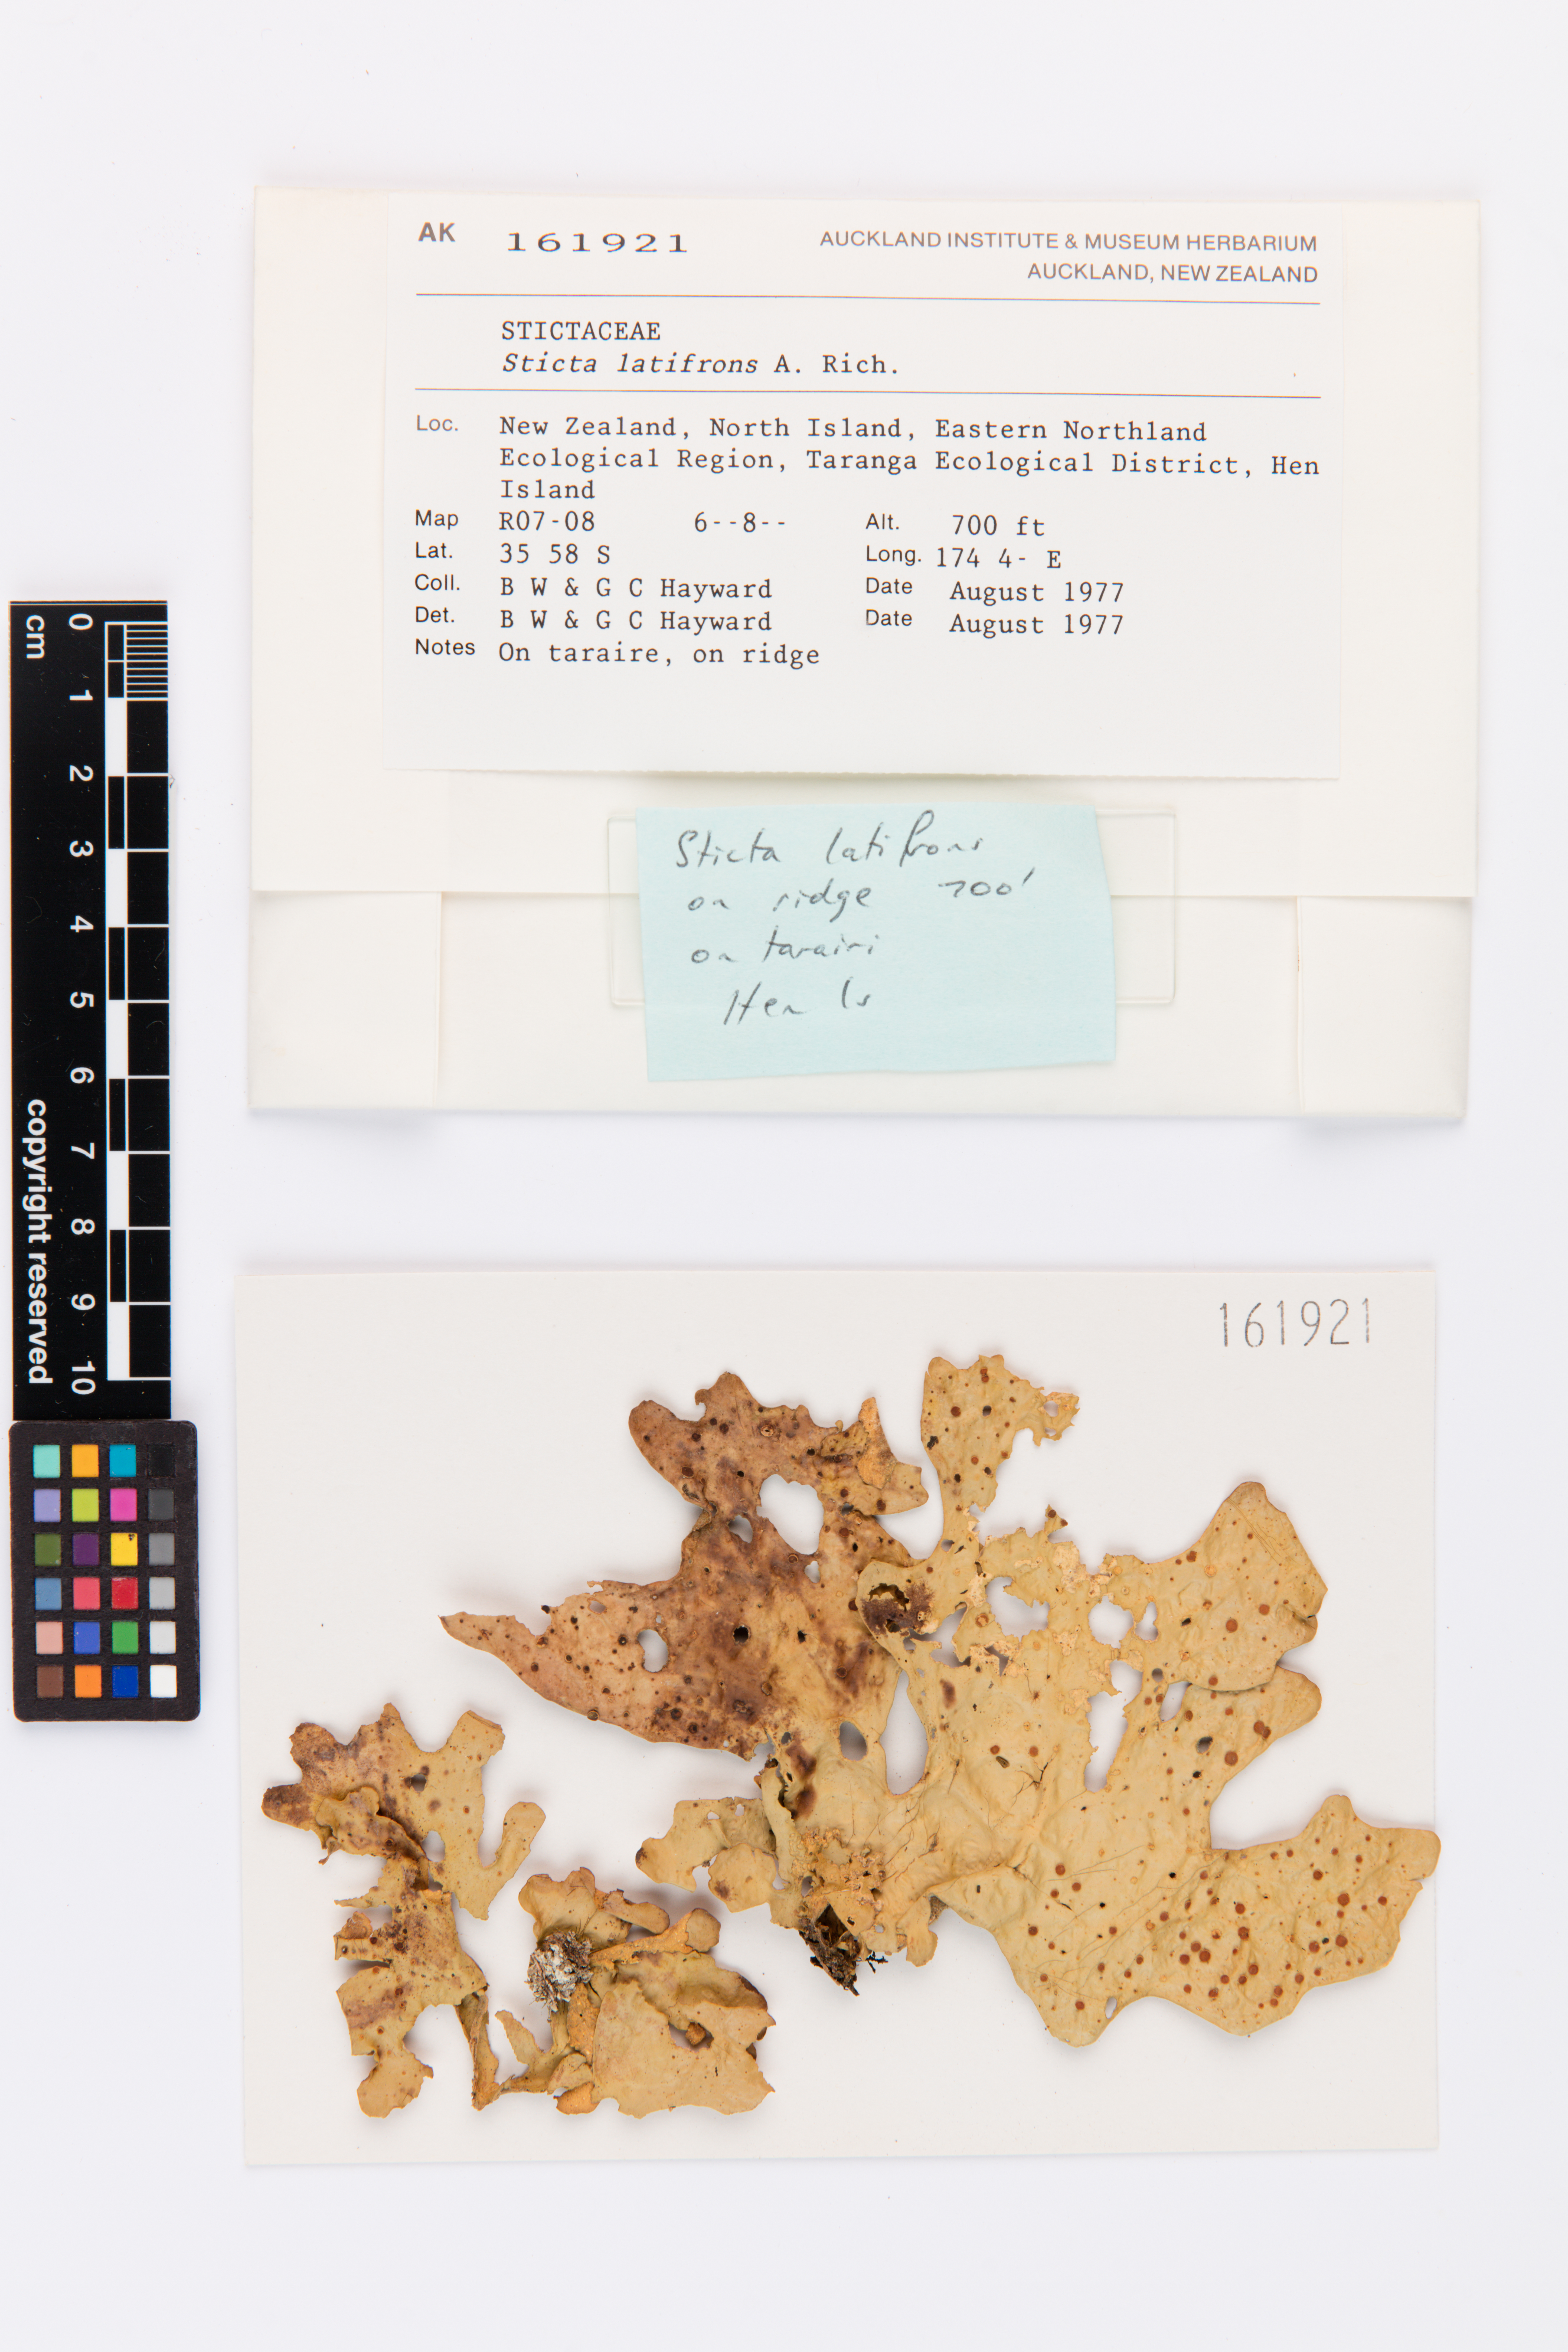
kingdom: Fungi
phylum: Ascomycota
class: Lecanoromycetes
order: Peltigerales
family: Lobariaceae
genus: Sticta
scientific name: Sticta latifrons
